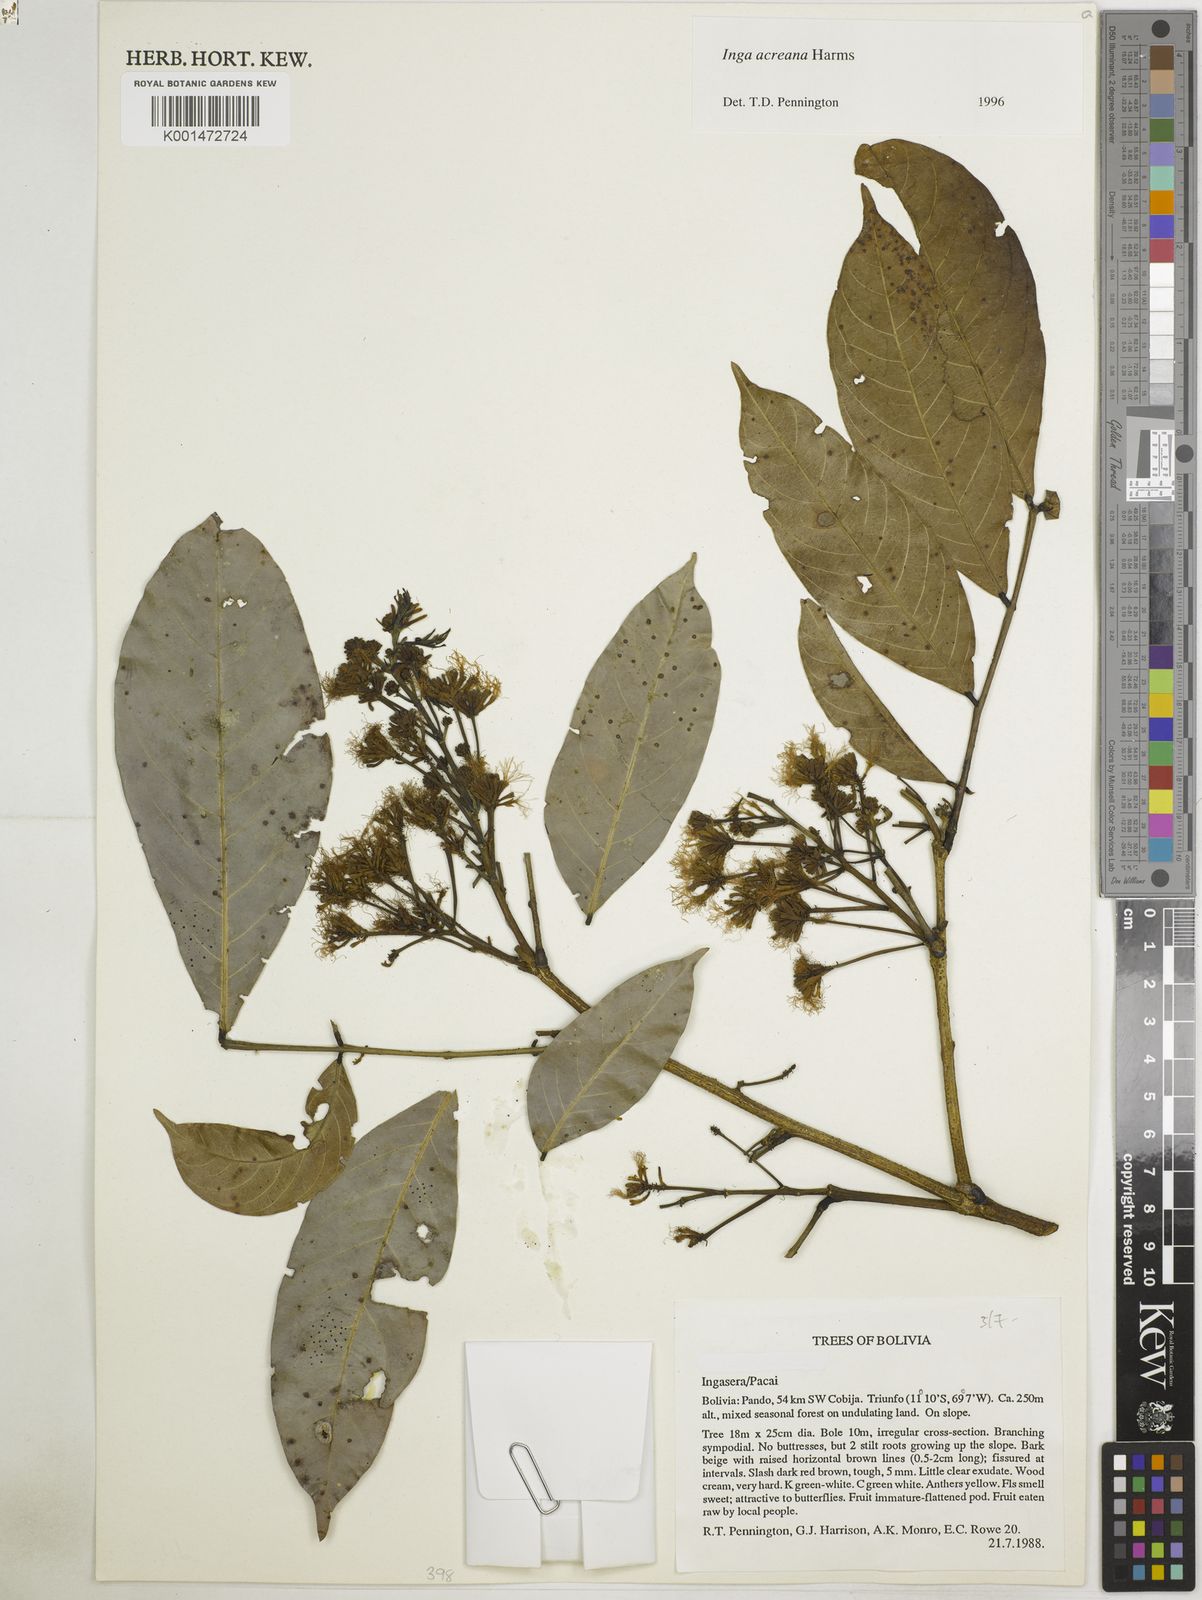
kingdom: Plantae
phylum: Tracheophyta
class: Magnoliopsida
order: Fabales
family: Fabaceae
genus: Inga
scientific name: Inga acreana
